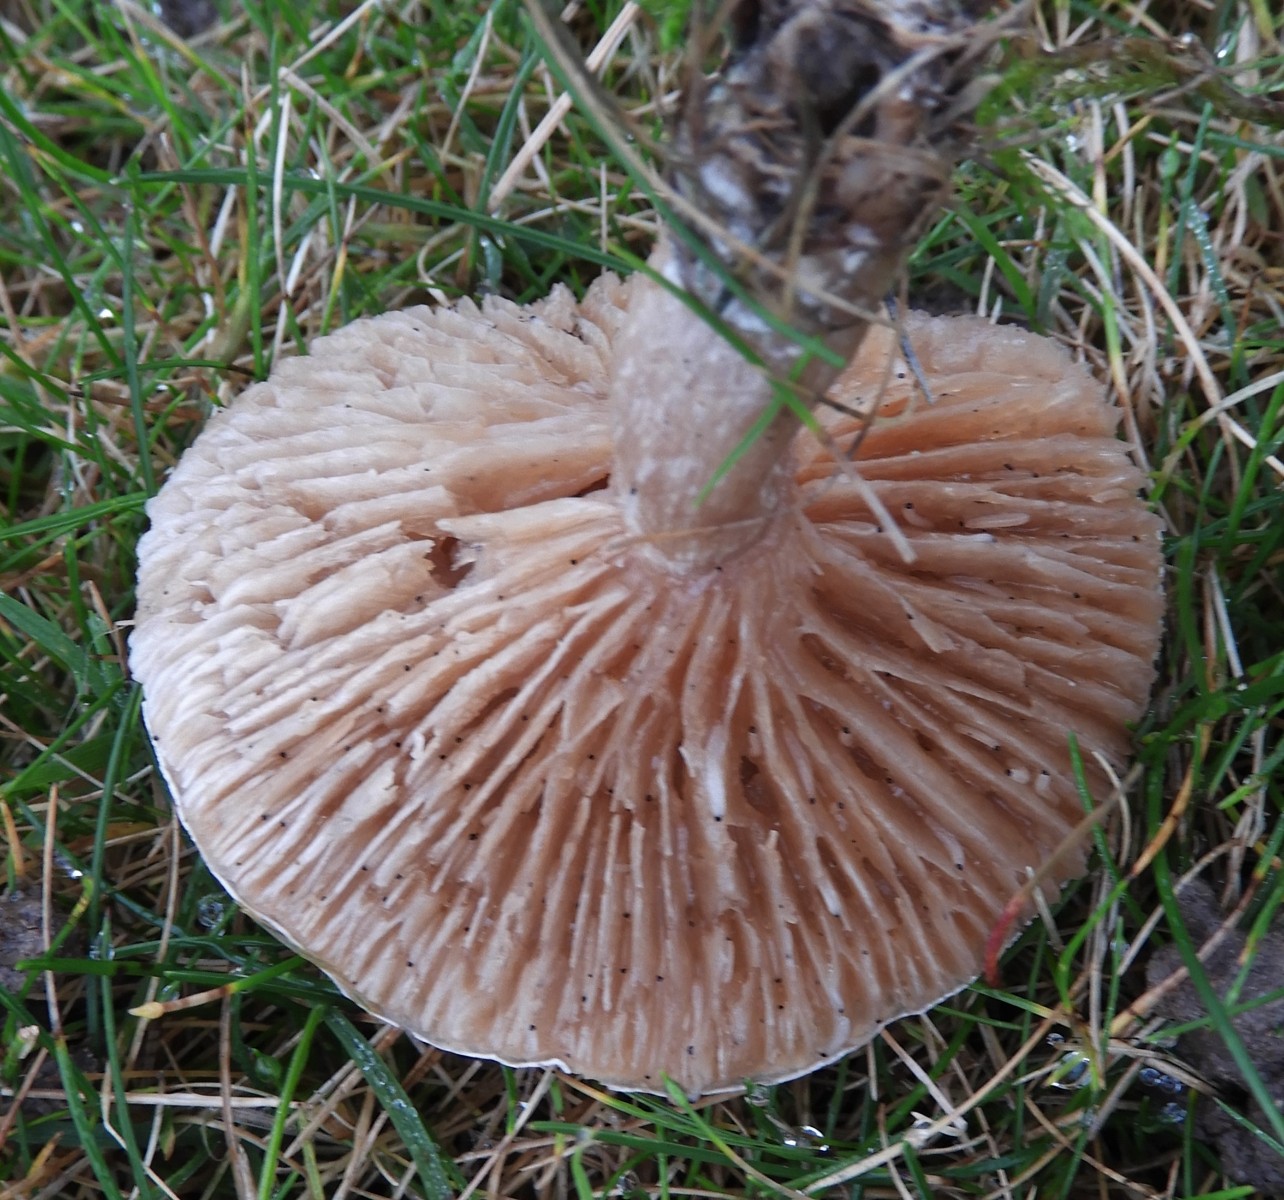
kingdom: Fungi
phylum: Basidiomycota
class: Agaricomycetes
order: Agaricales
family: Tricholomataceae
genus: Clitocybe
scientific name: Clitocybe rivulosa
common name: eng-tragthat
